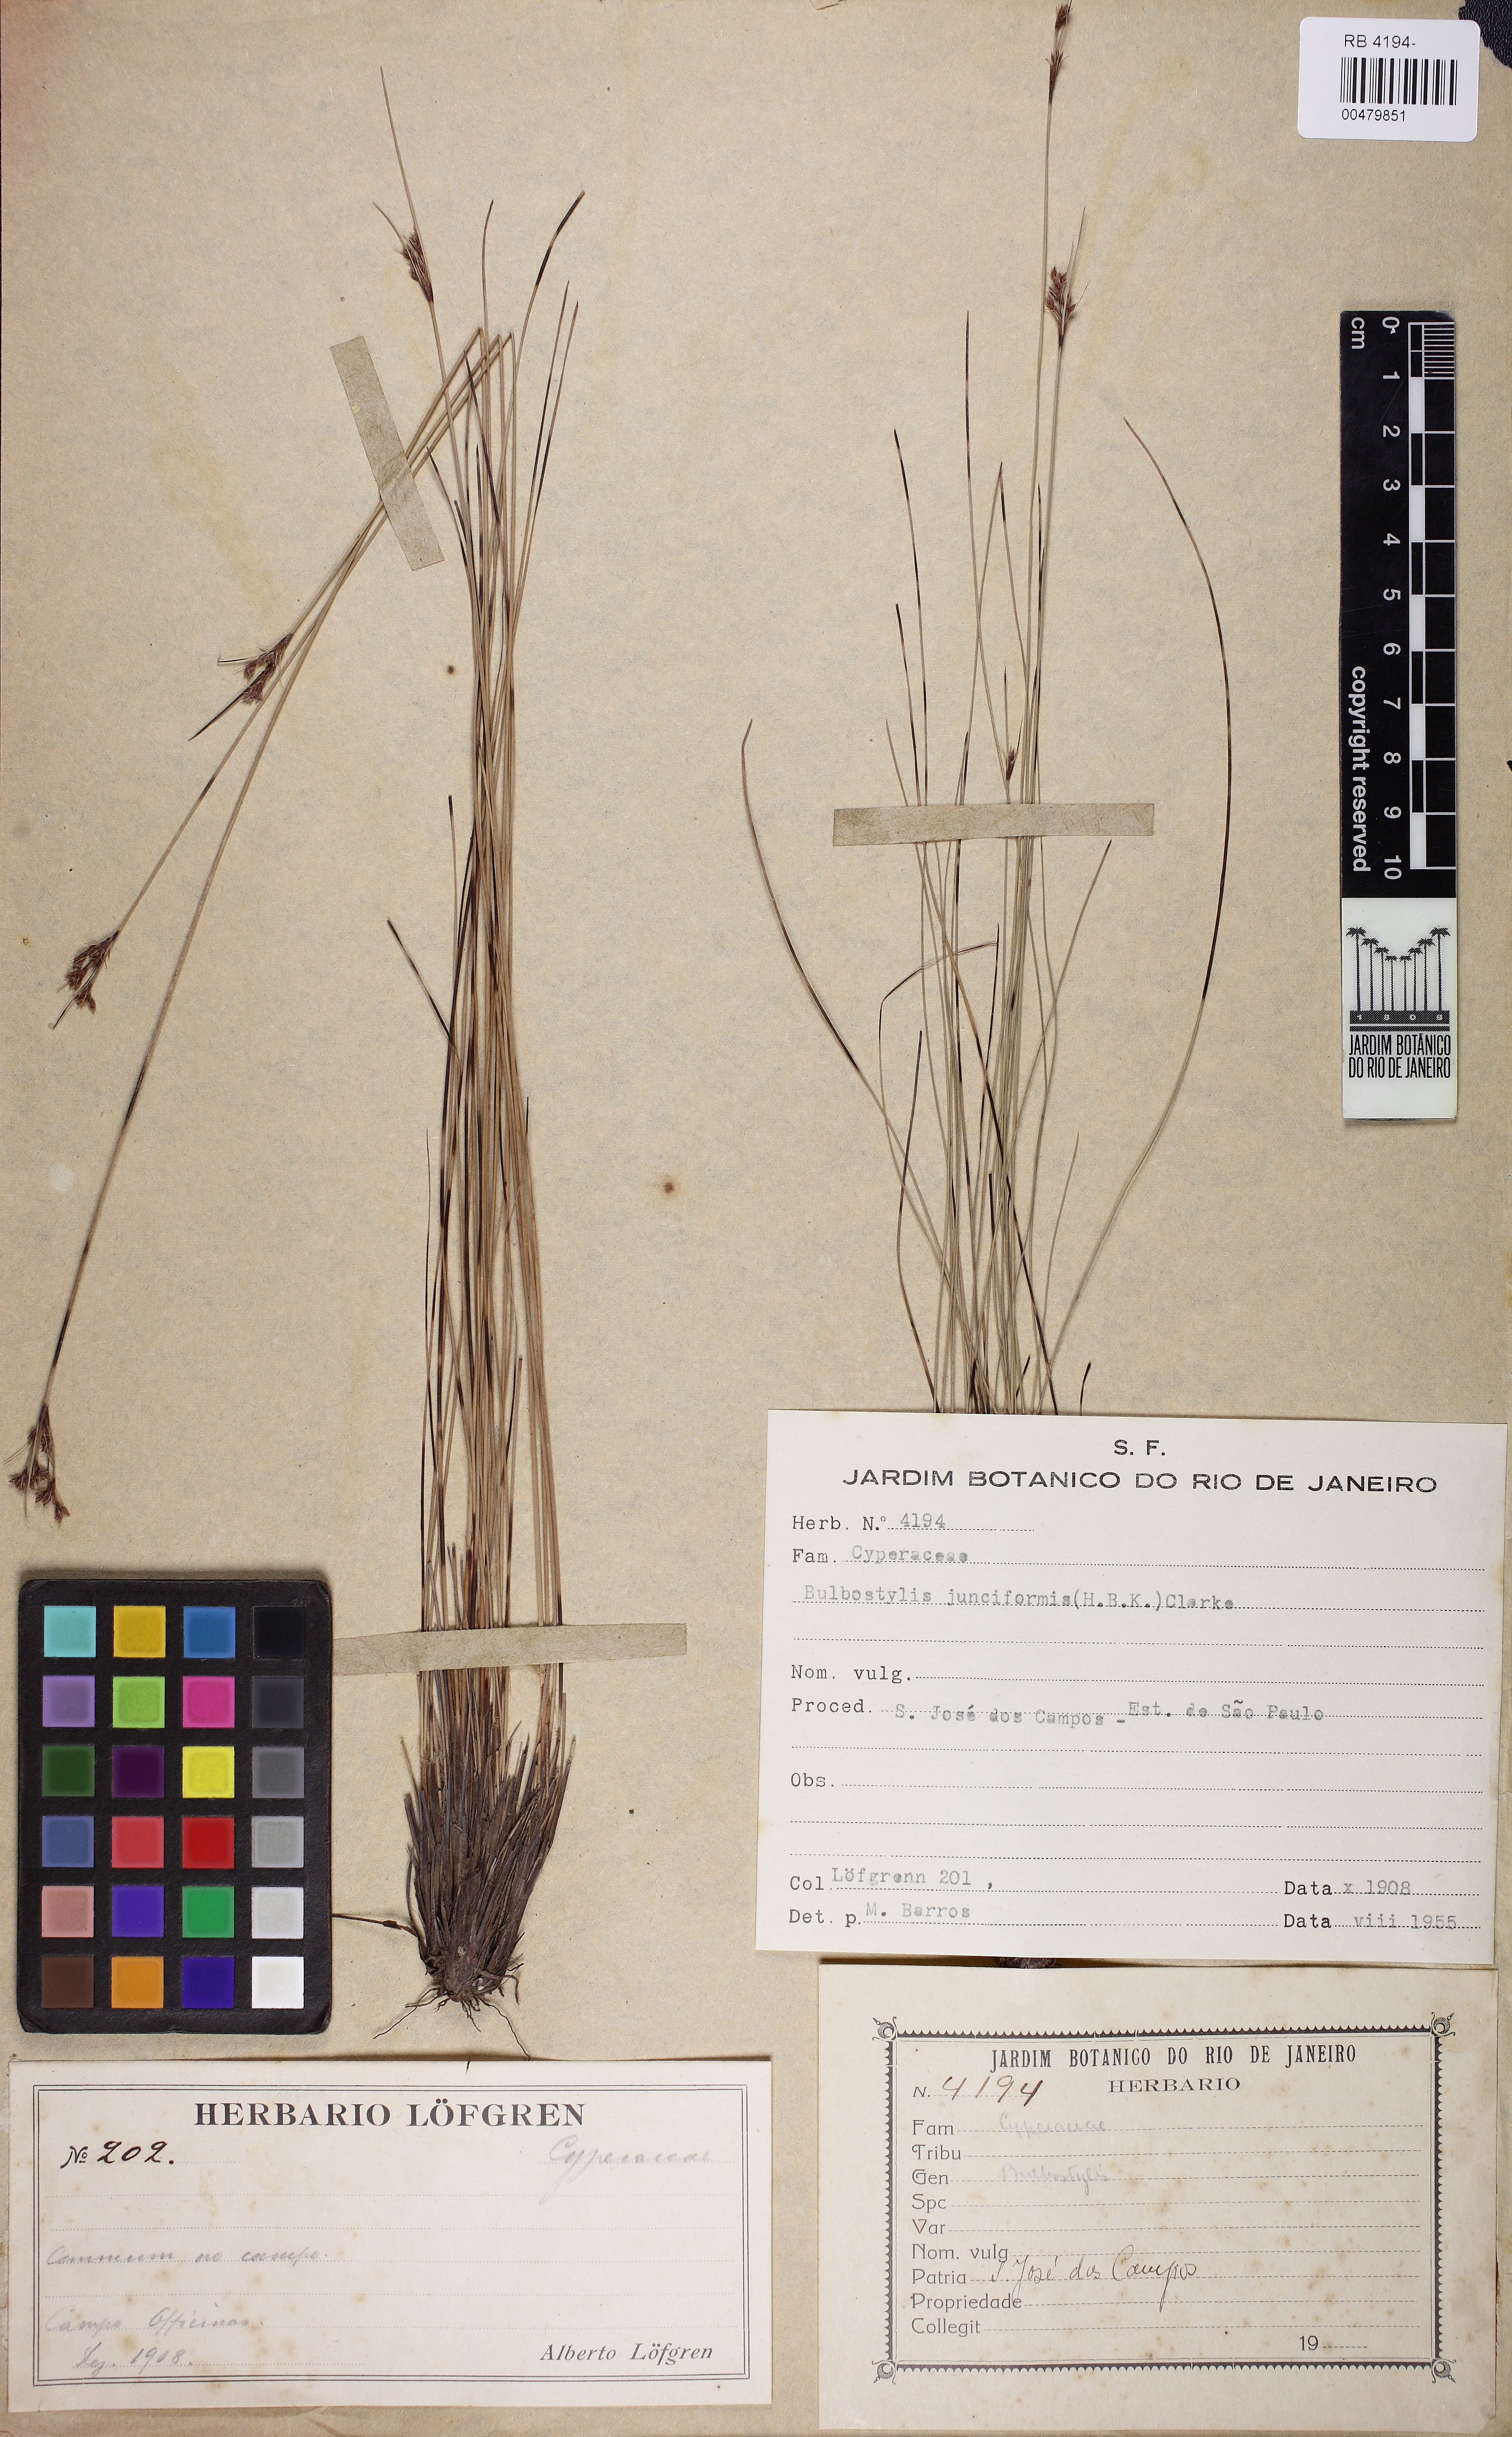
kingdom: Plantae
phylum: Tracheophyta
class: Liliopsida
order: Poales
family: Cyperaceae
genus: Bulbostylis
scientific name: Bulbostylis junciformis
